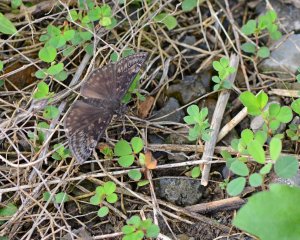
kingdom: Animalia
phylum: Arthropoda
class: Insecta
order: Lepidoptera
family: Hesperiidae
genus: Gesta
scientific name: Gesta
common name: Wild Indigo Duskywing
